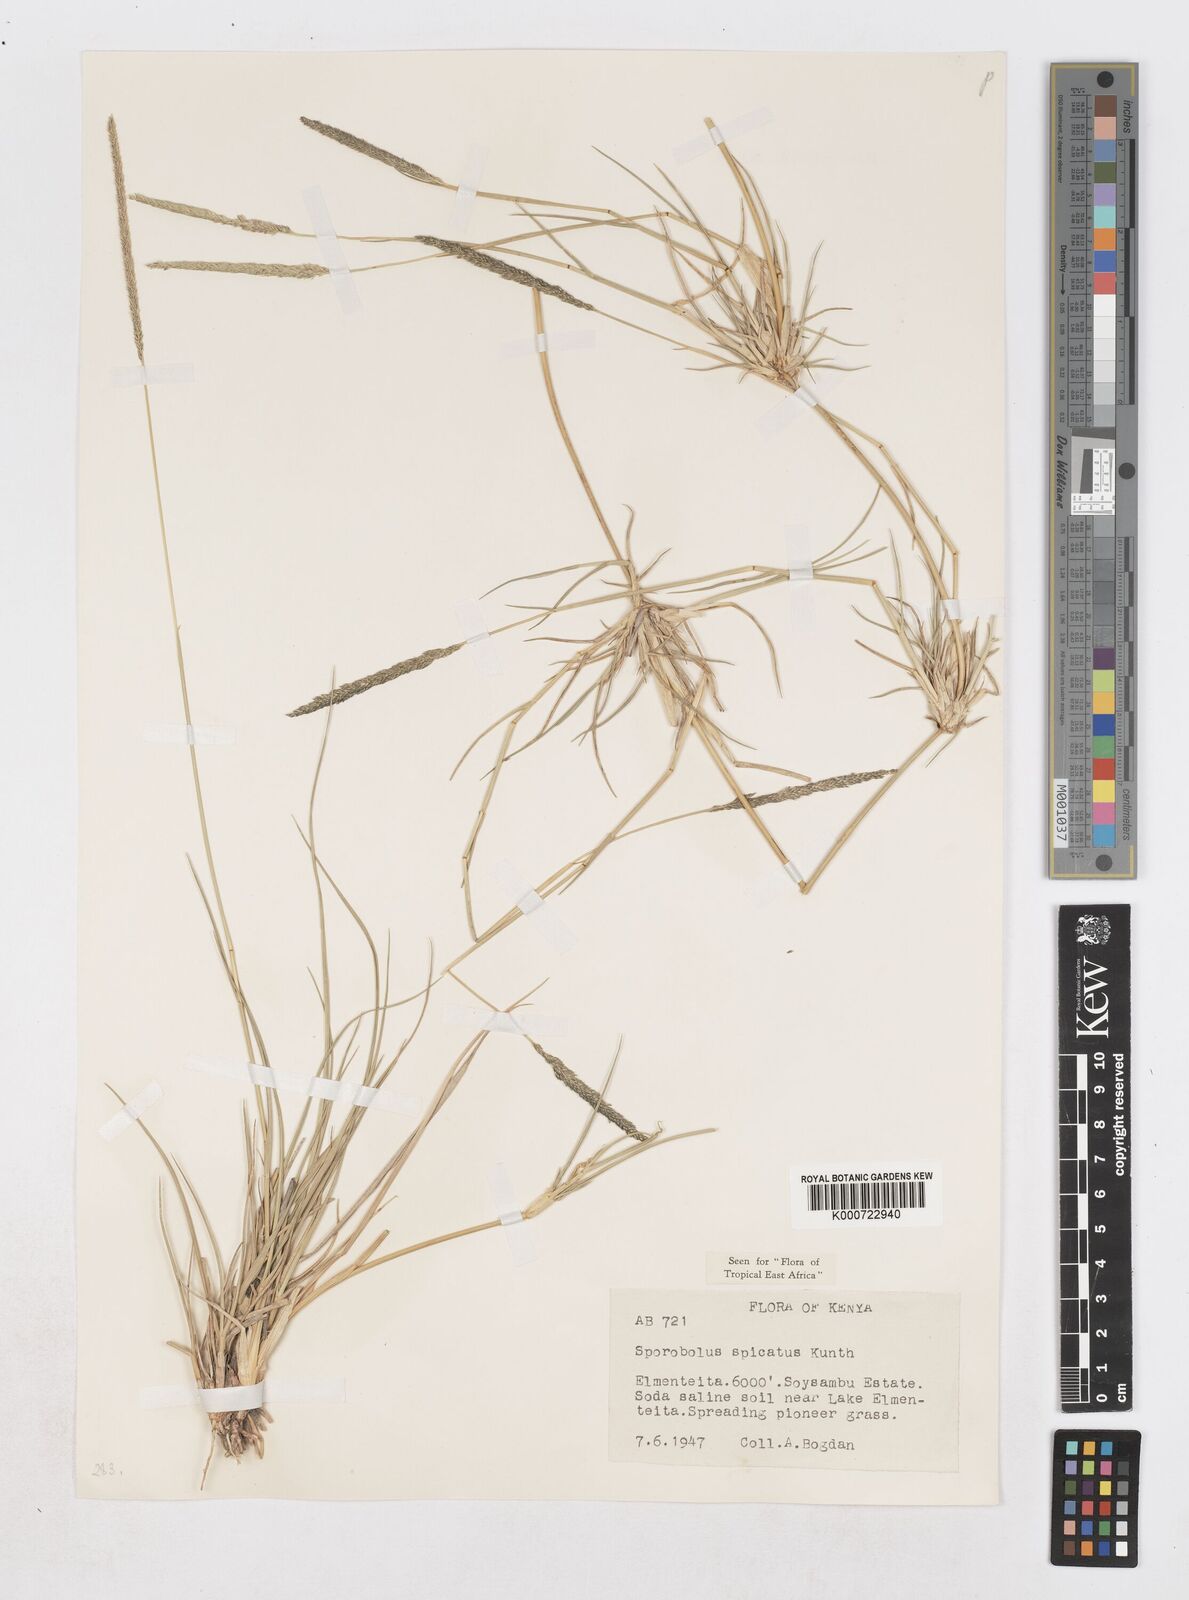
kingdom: Plantae
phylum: Tracheophyta
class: Liliopsida
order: Poales
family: Poaceae
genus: Sporobolus
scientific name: Sporobolus spicatus
